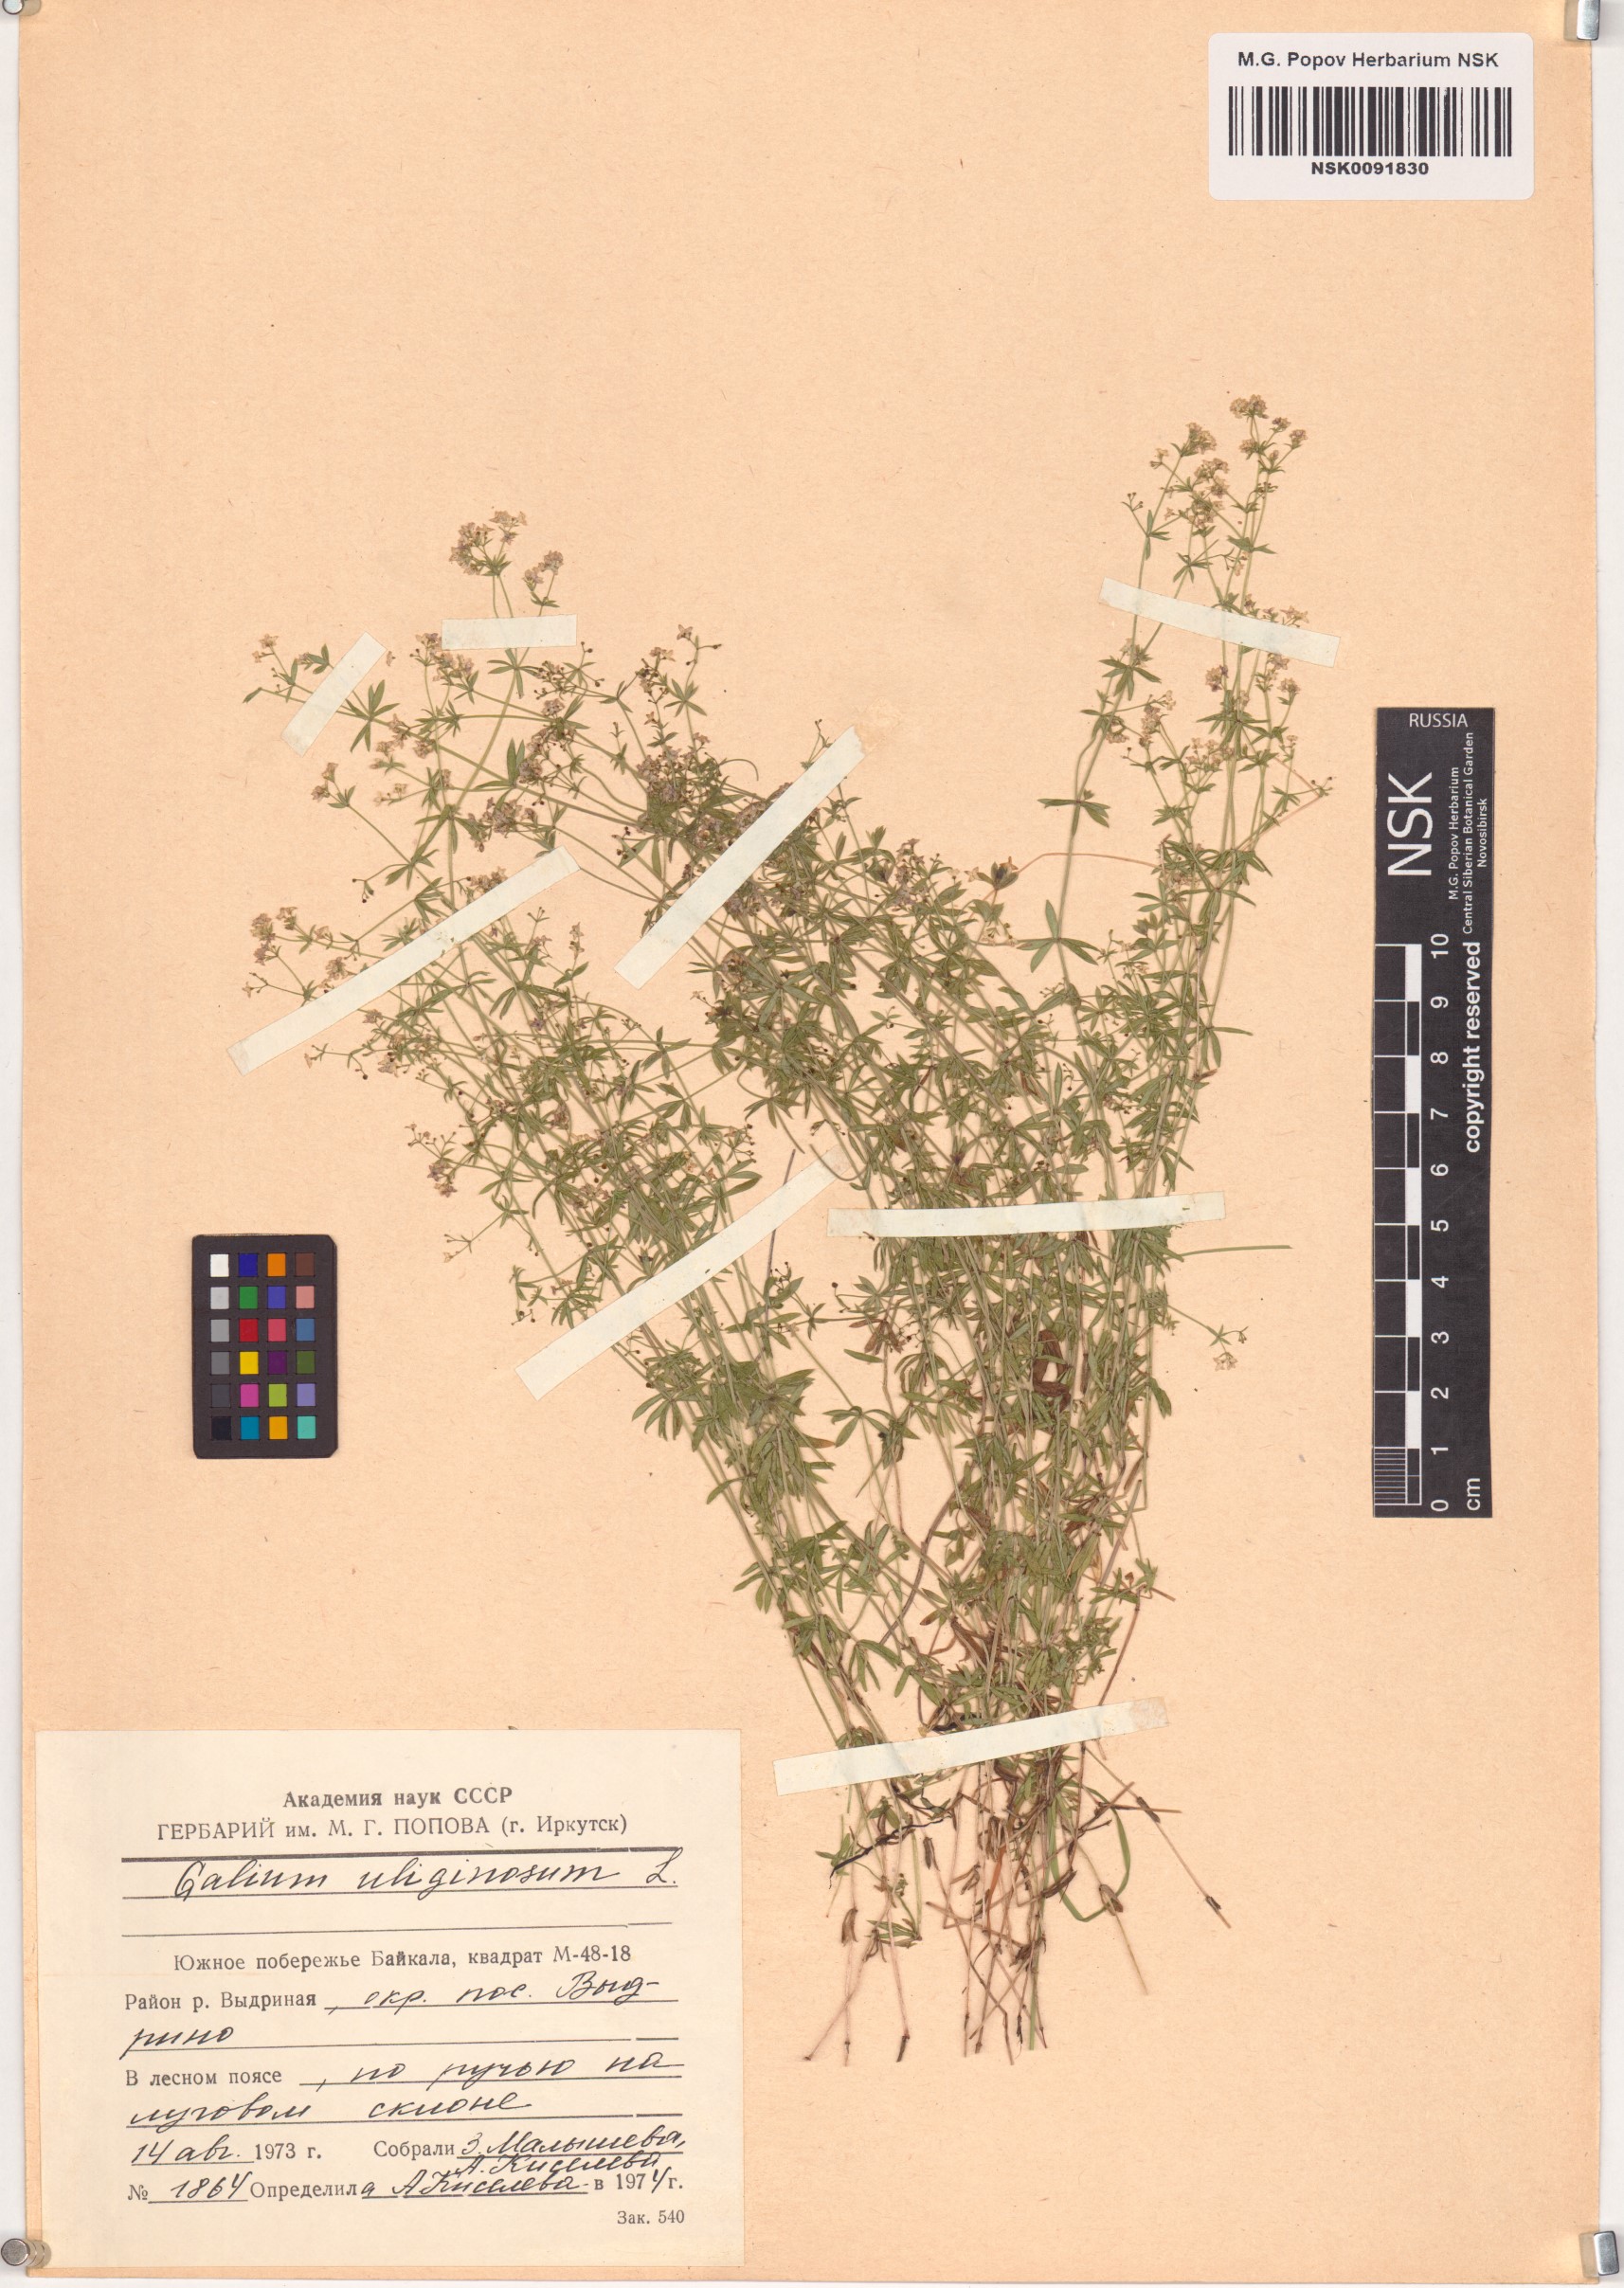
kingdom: Plantae
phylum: Tracheophyta
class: Magnoliopsida
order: Gentianales
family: Rubiaceae
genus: Galium
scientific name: Galium uliginosum
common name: Fen bedstraw
